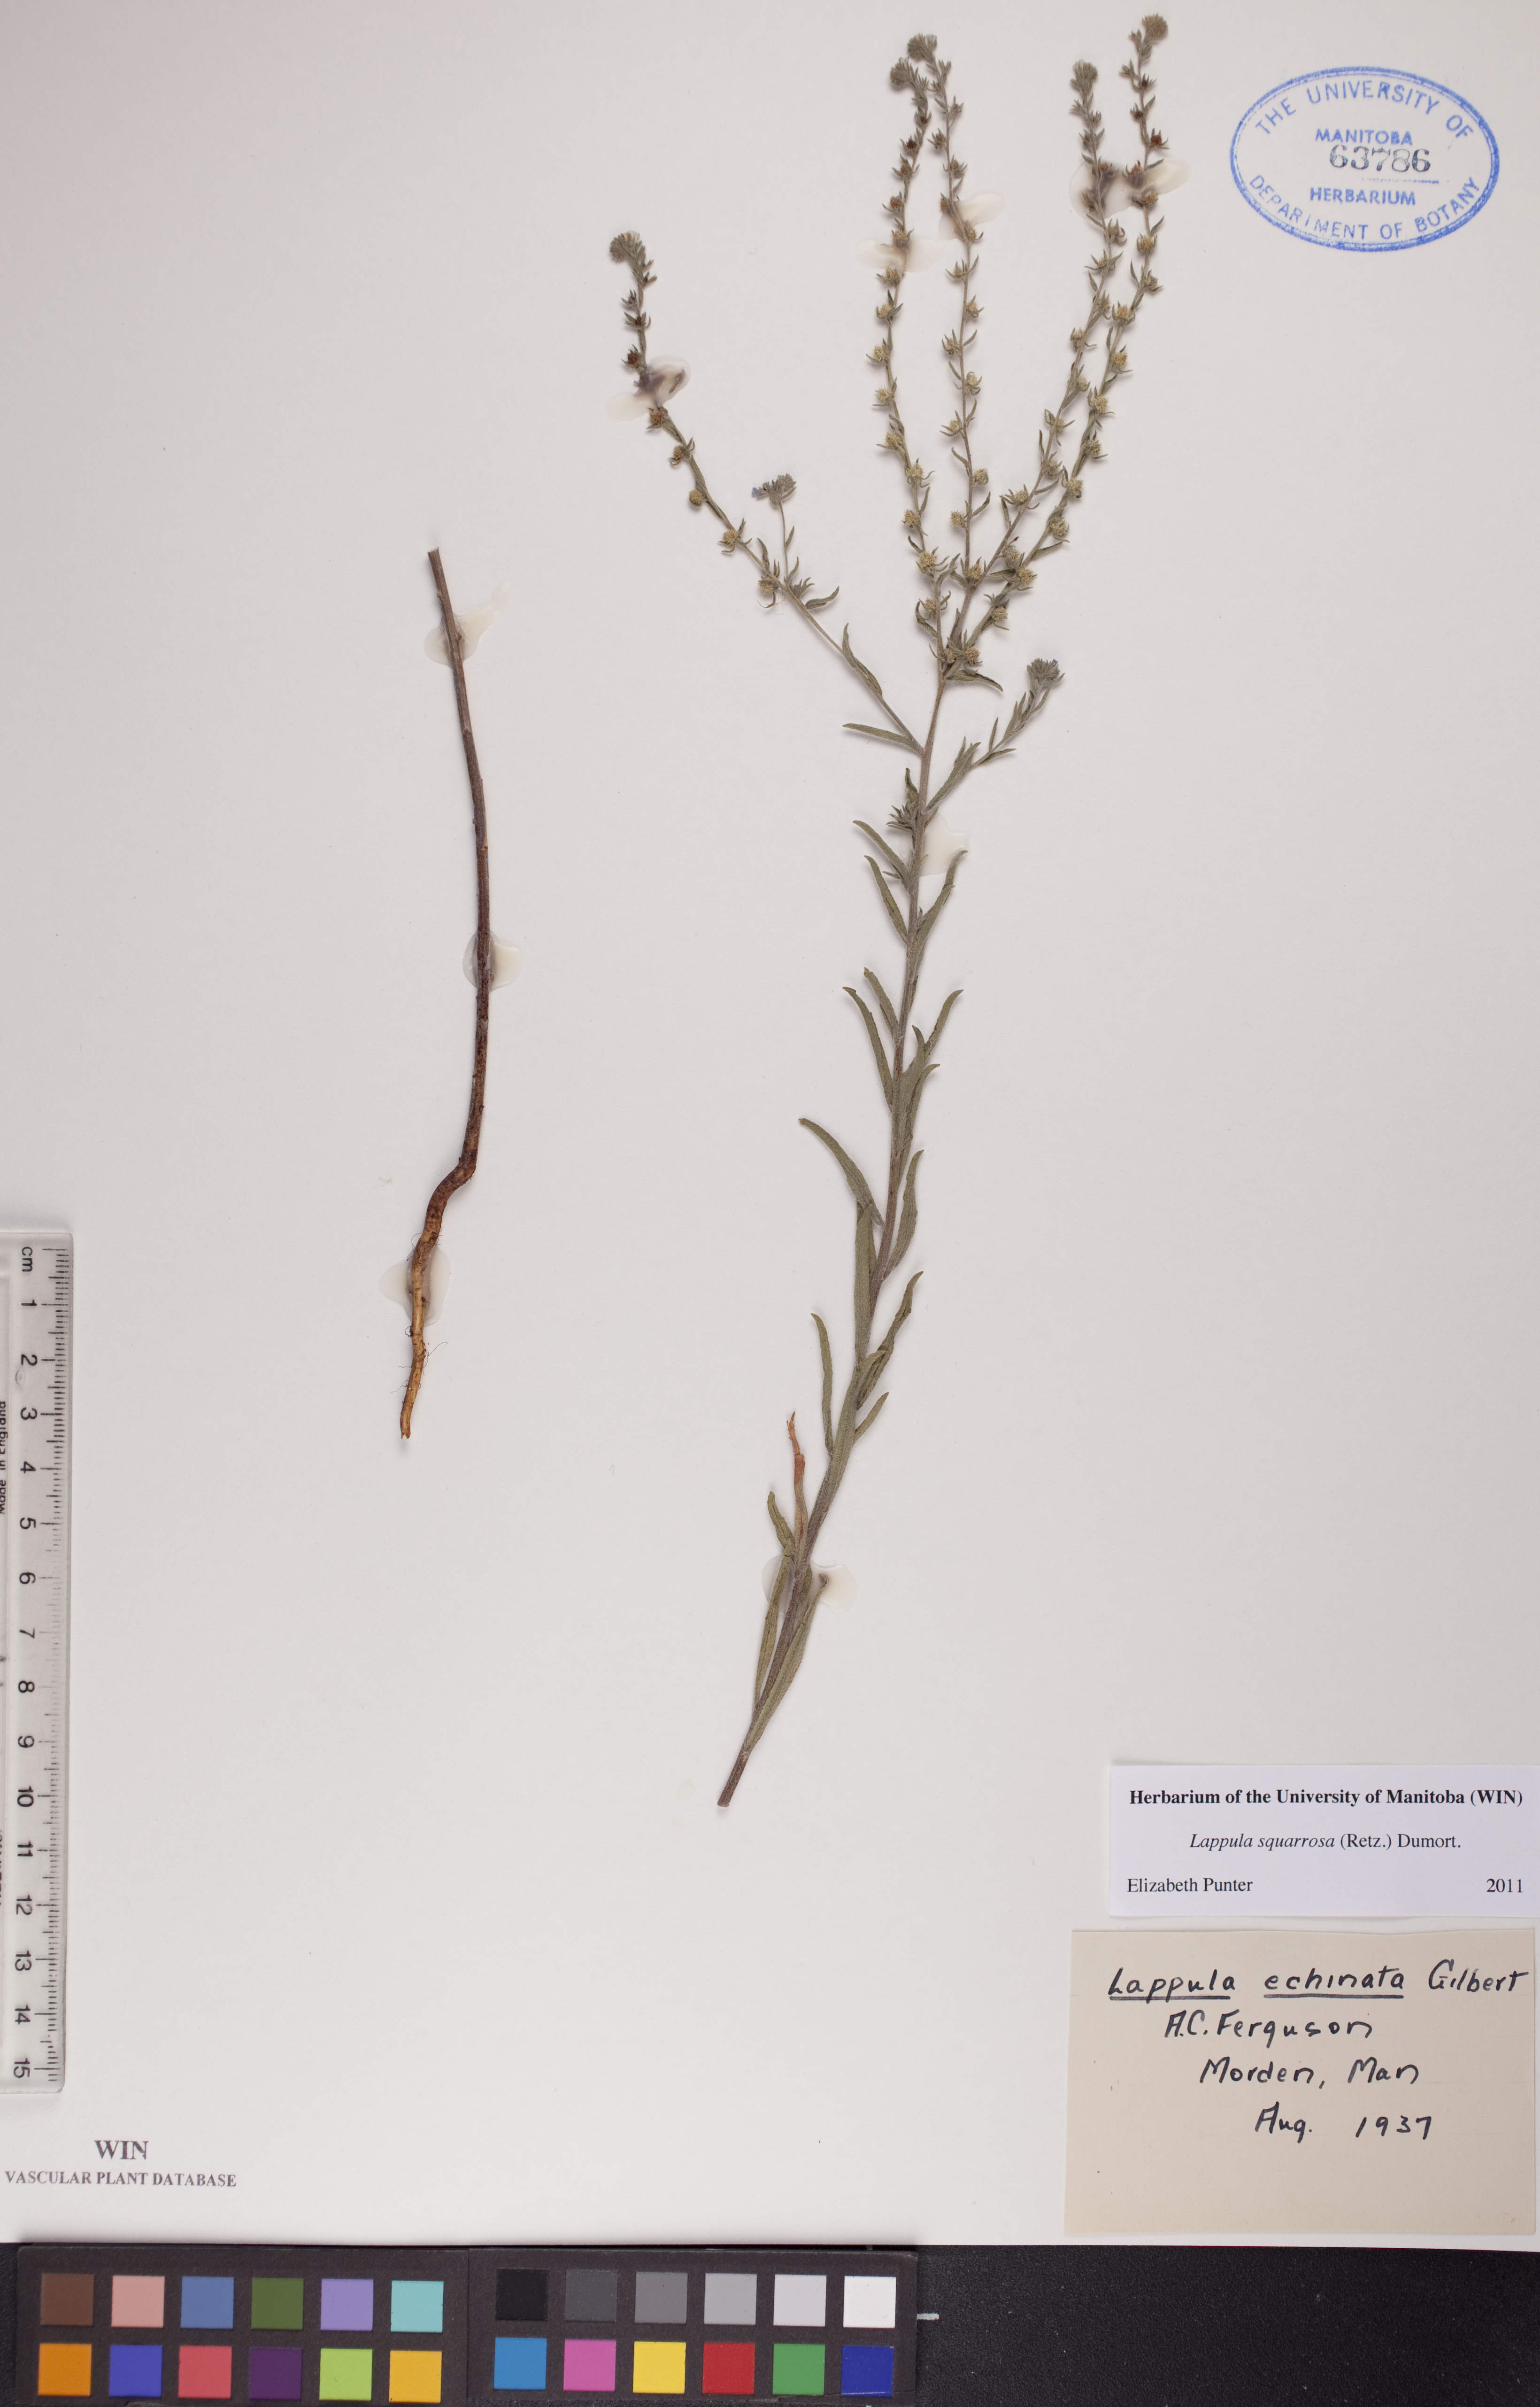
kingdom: Plantae
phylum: Tracheophyta
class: Magnoliopsida
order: Boraginales
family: Boraginaceae
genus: Lappula
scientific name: Lappula squarrosa
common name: European stickseed
